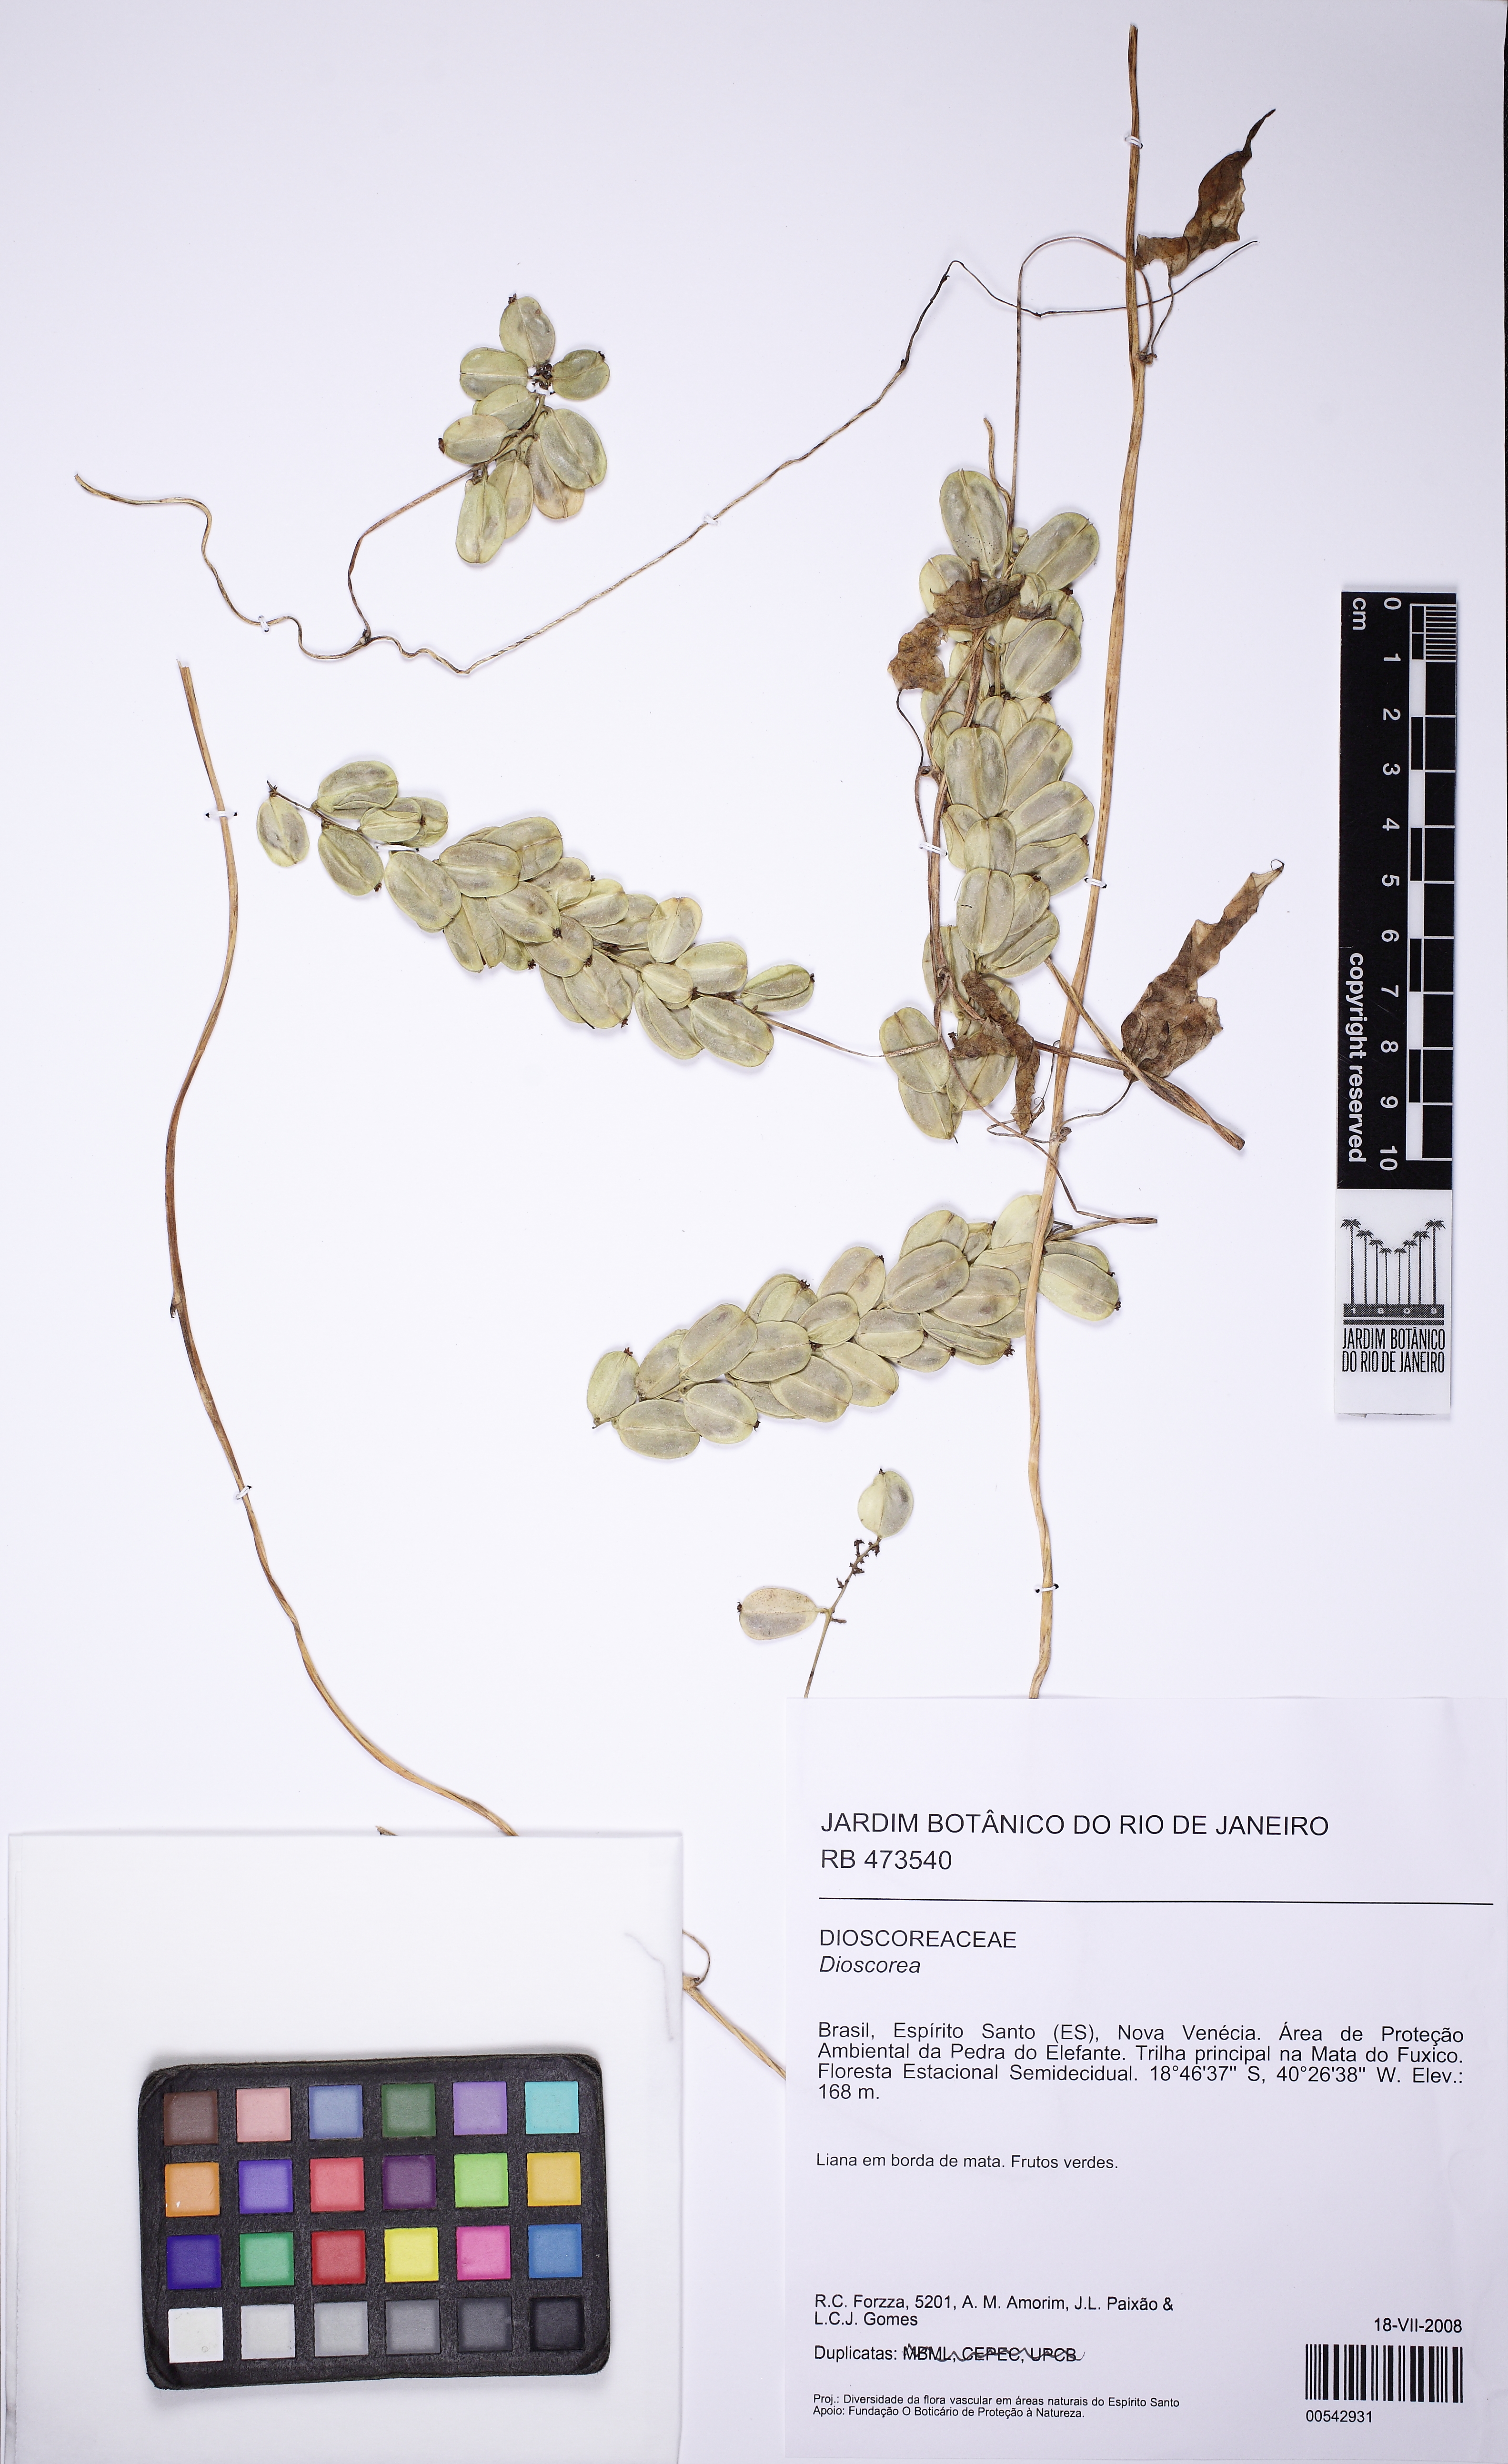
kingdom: Plantae
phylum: Tracheophyta
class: Liliopsida
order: Dioscoreales
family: Dioscoreaceae
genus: Dioscorea
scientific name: Dioscorea piperifolia
